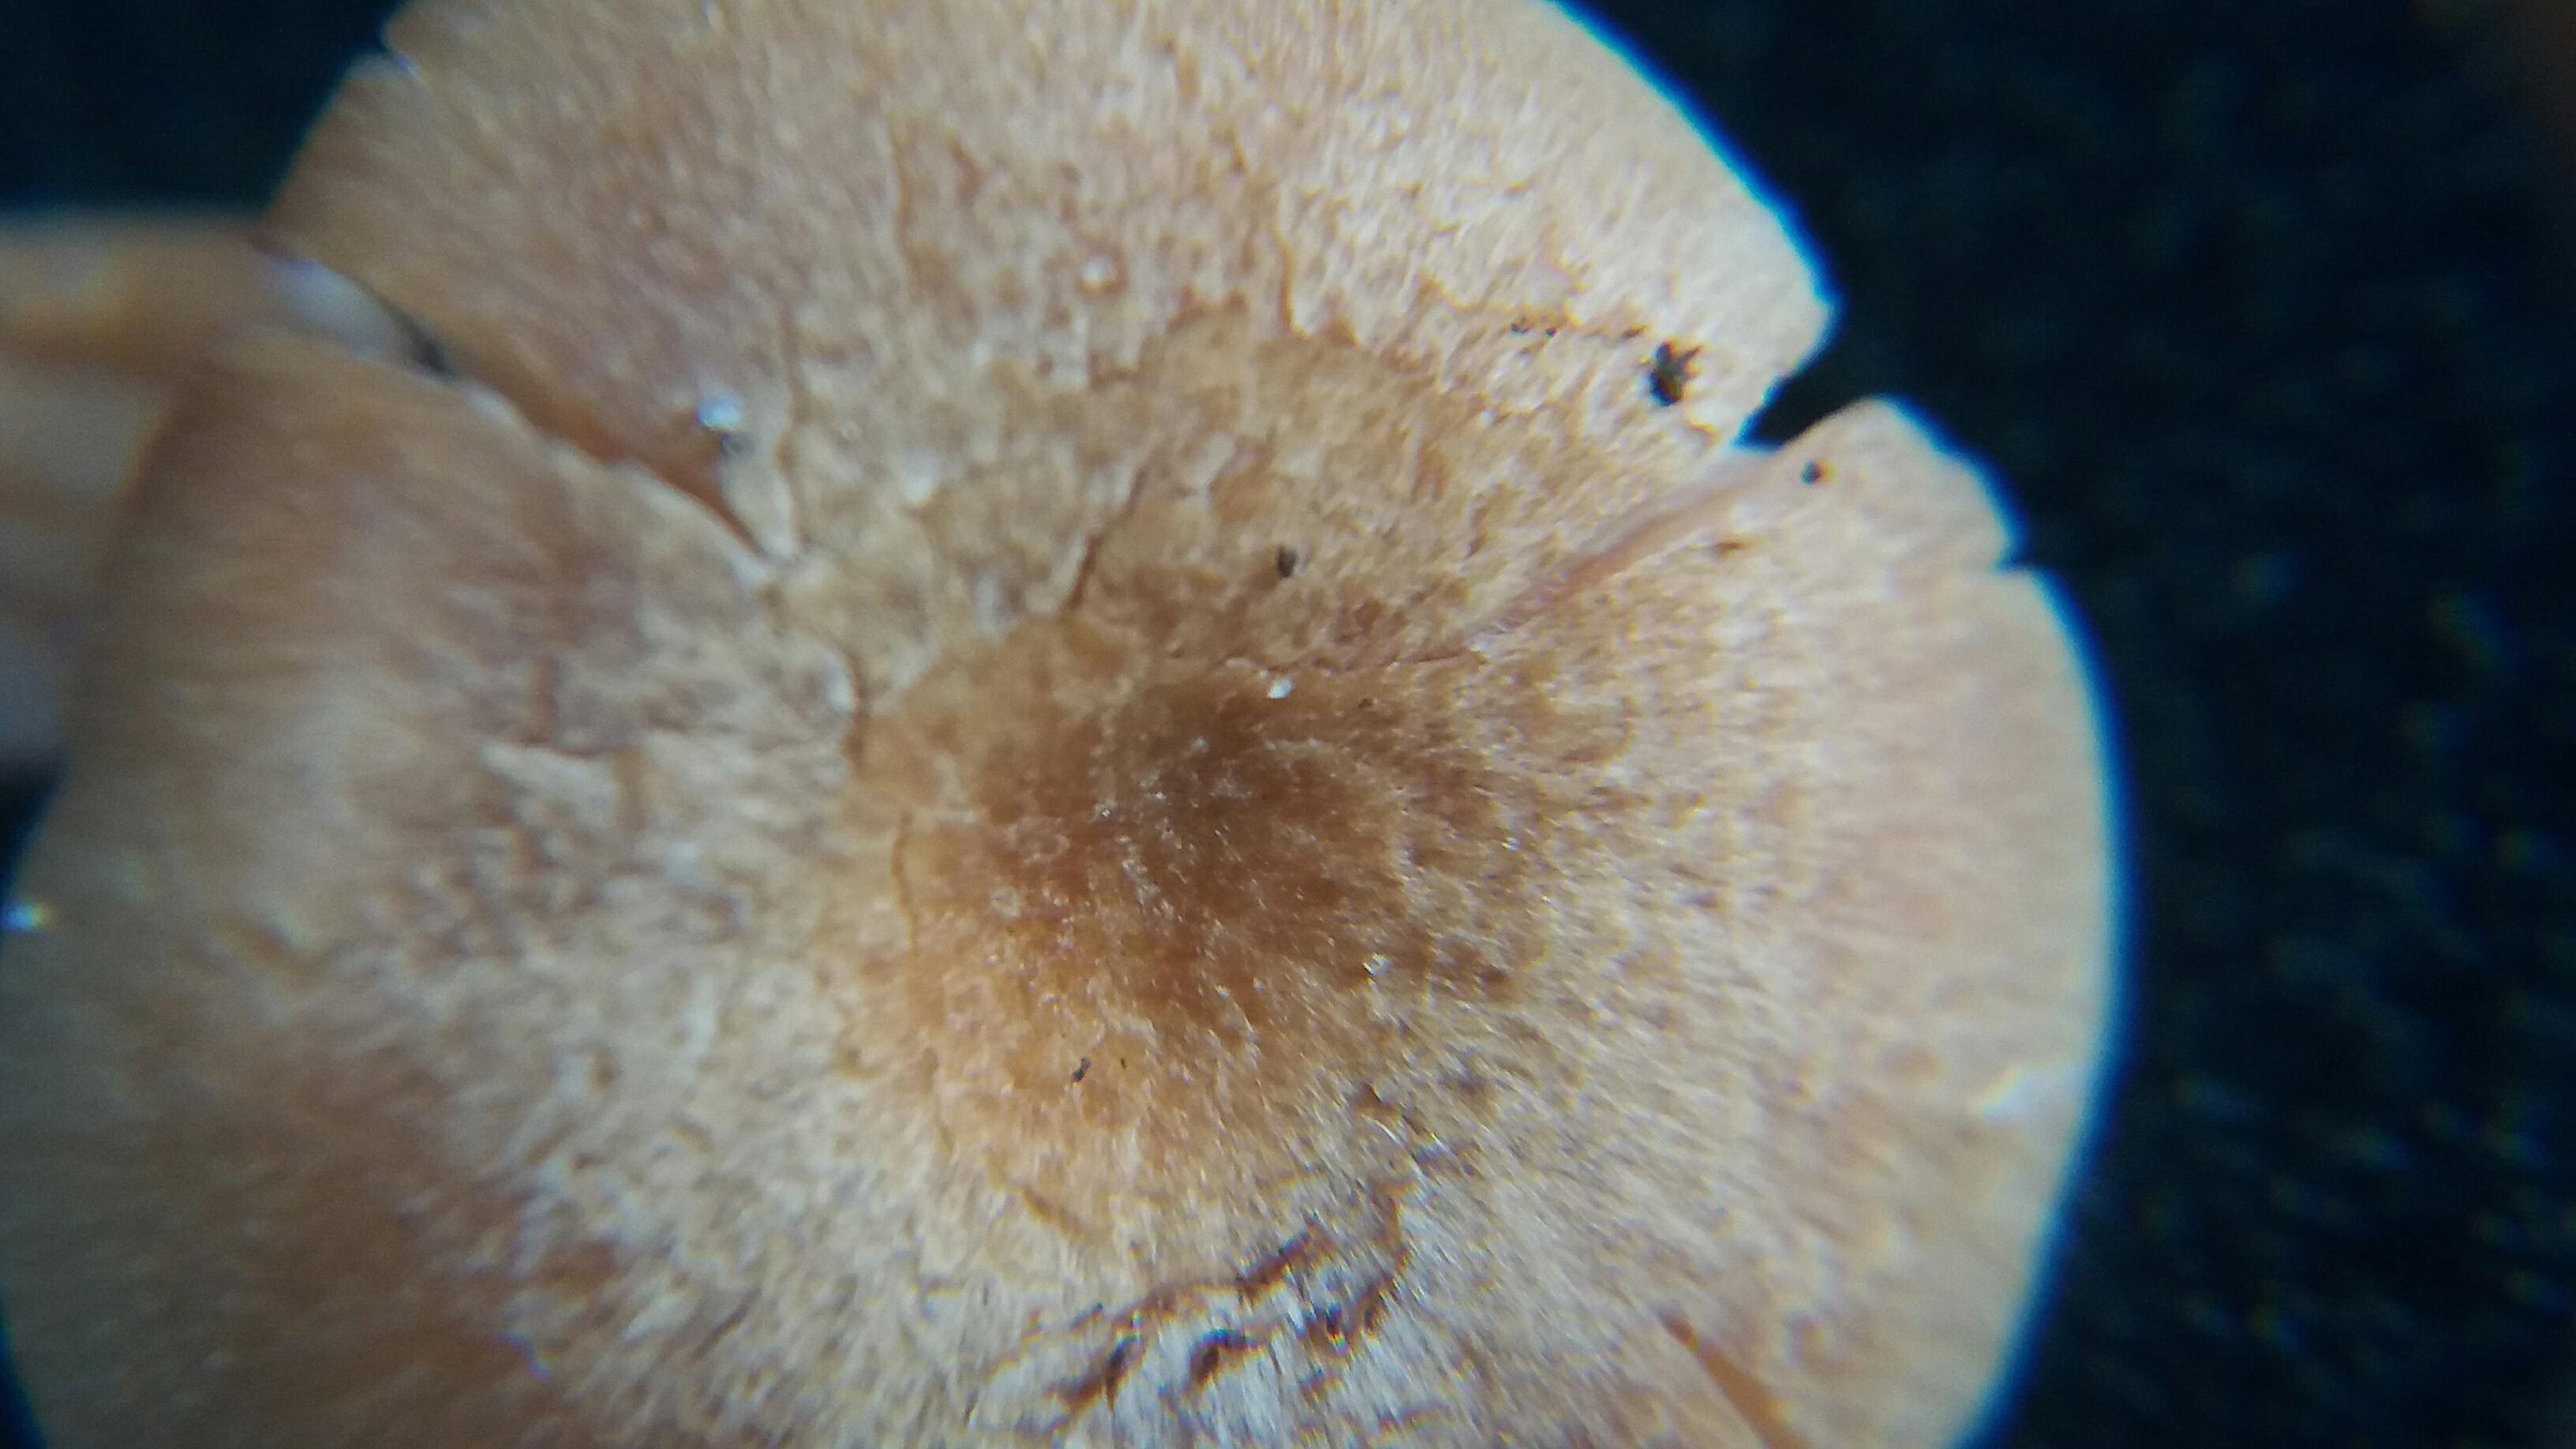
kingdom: Fungi
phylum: Basidiomycota
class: Agaricomycetes
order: Agaricales
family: Hydnangiaceae
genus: Laccaria
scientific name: Laccaria laccata
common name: rød ametysthat
